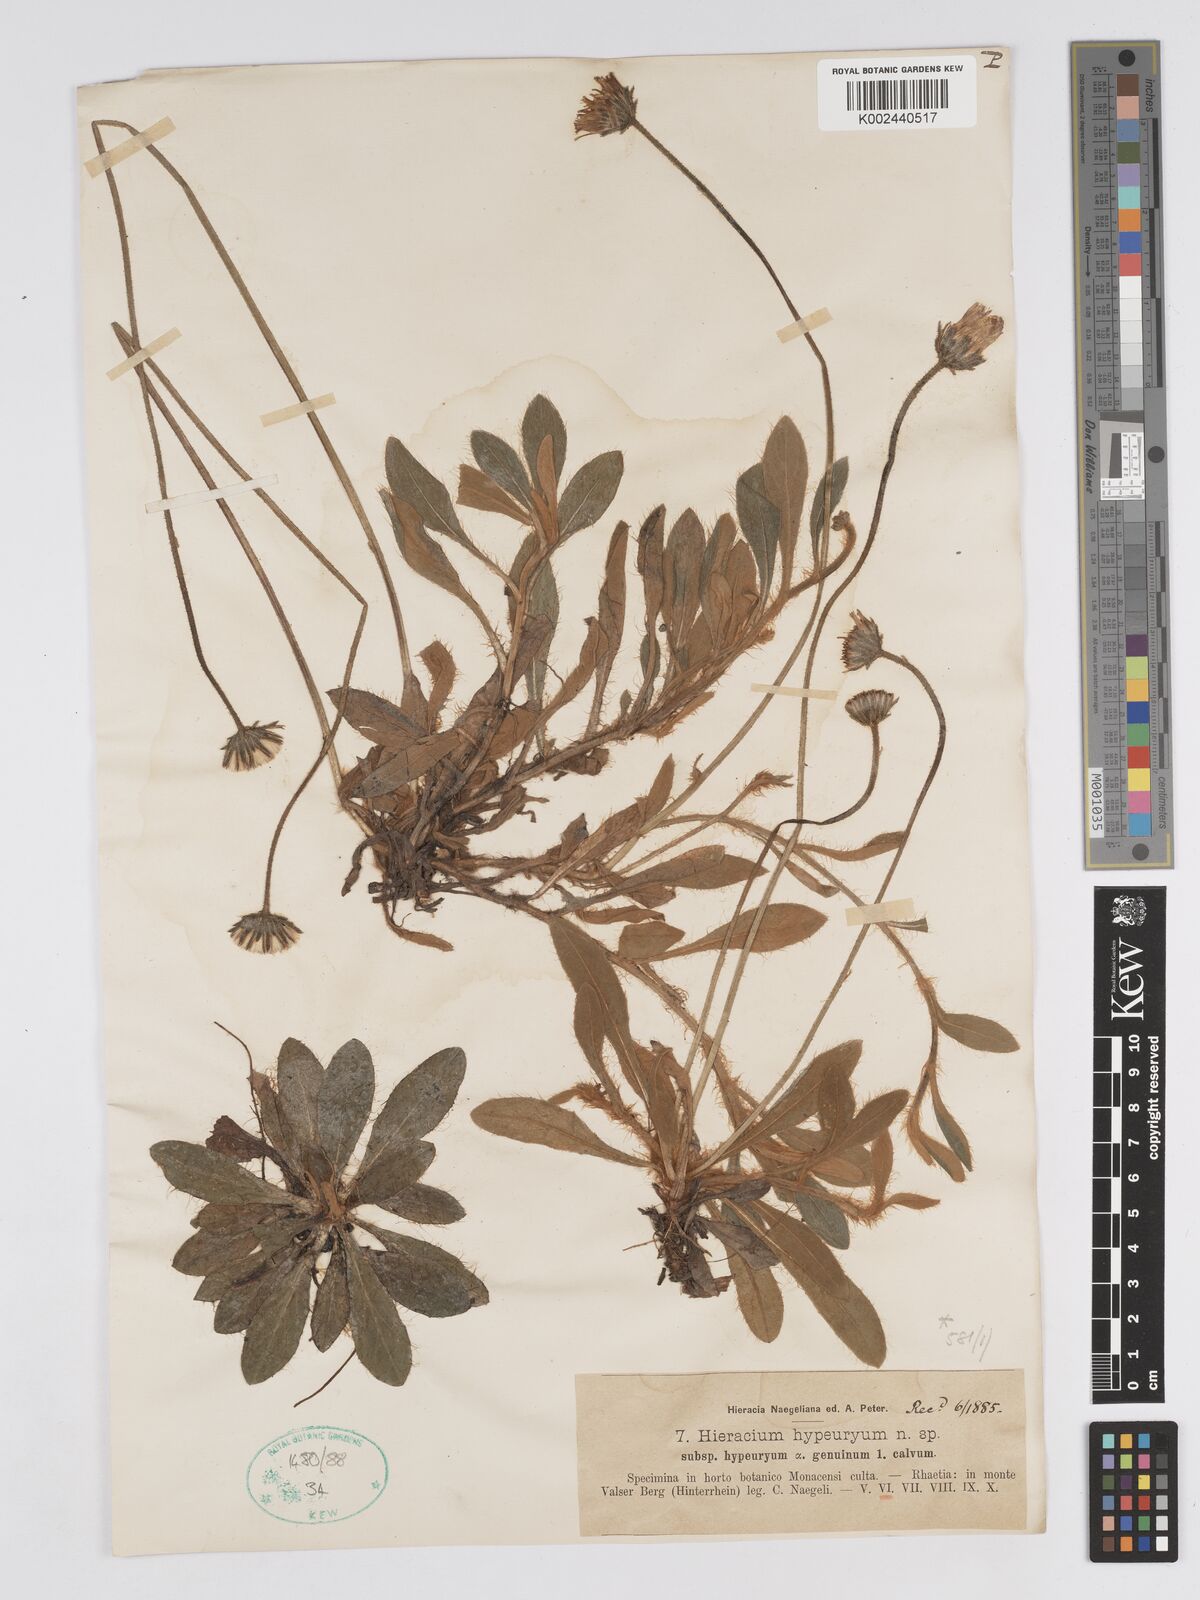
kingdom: Plantae
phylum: Tracheophyta
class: Magnoliopsida
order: Asterales
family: Asteraceae
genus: Pilosella
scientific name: Pilosella hypeurya
